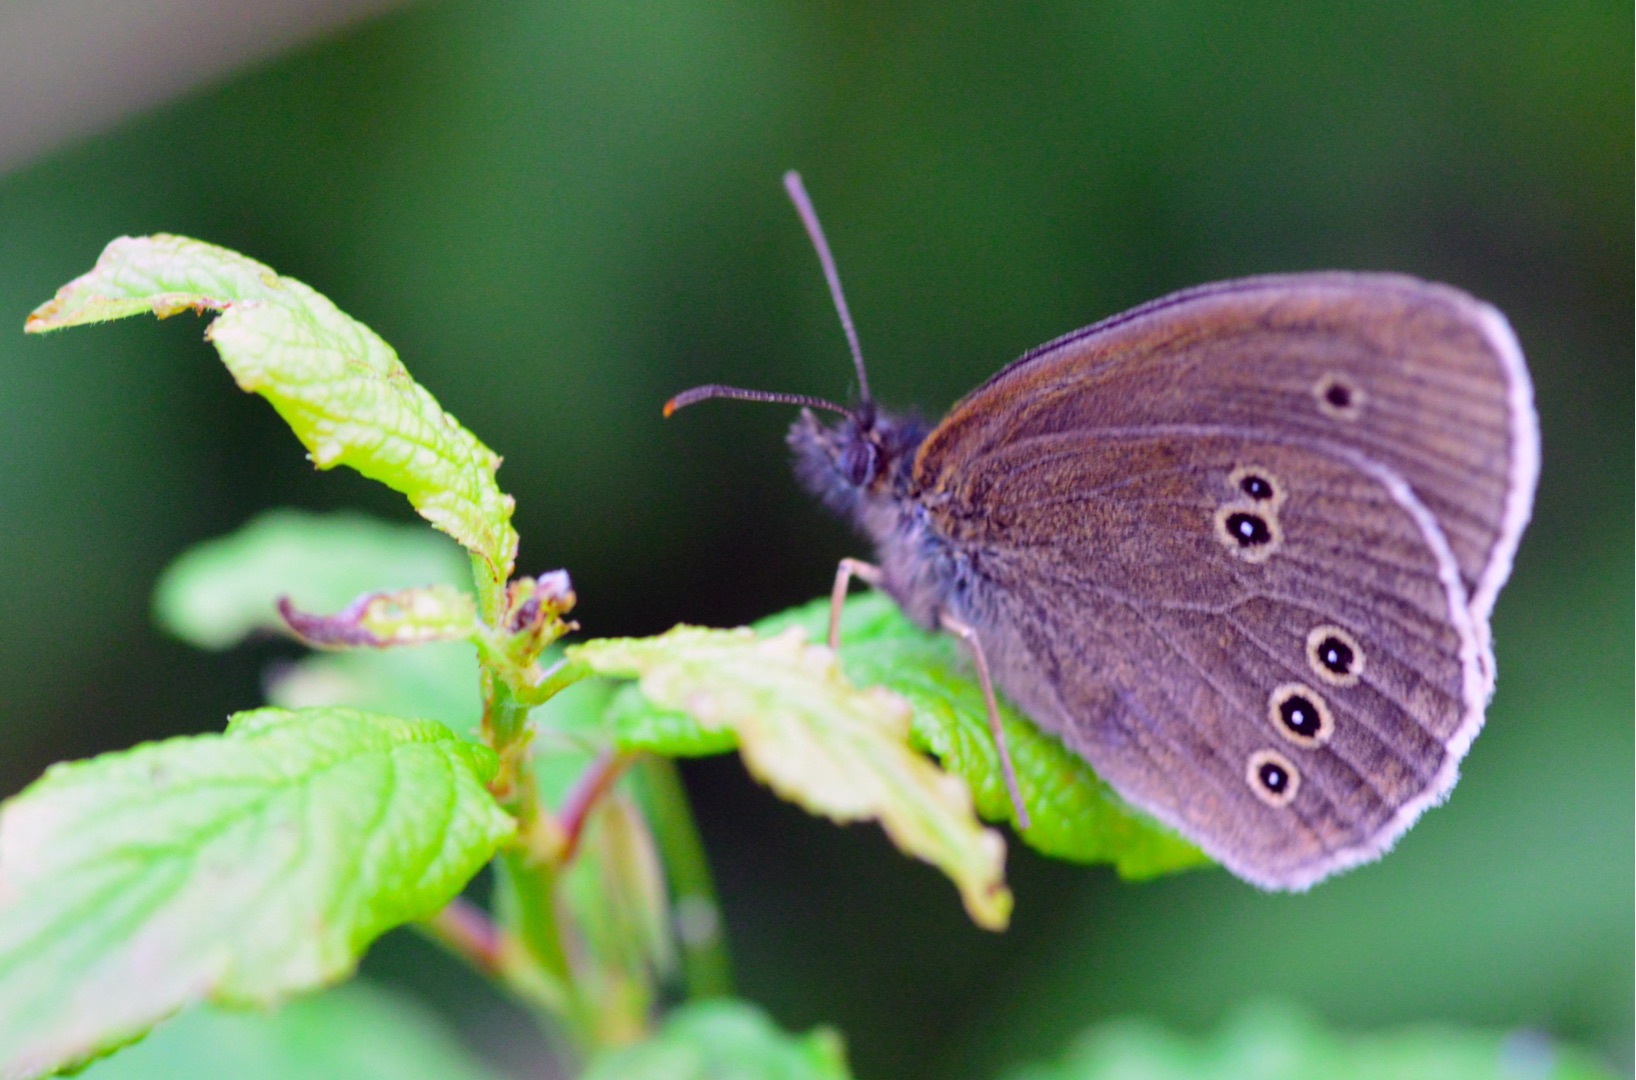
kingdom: Animalia
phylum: Arthropoda
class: Insecta
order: Lepidoptera
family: Nymphalidae
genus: Aphantopus
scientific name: Aphantopus hyperantus
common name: Engrandøje
